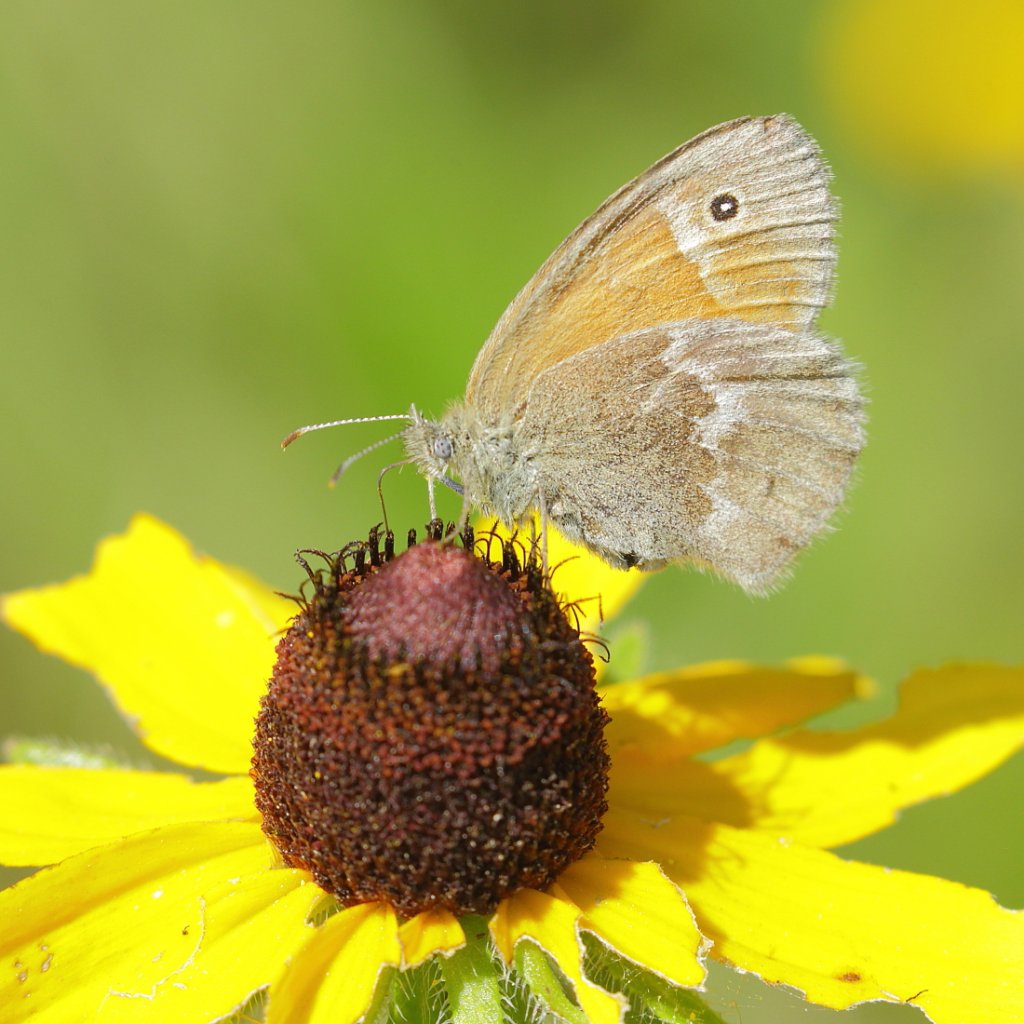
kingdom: Animalia
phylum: Arthropoda
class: Insecta
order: Lepidoptera
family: Nymphalidae
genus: Coenonympha
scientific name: Coenonympha tullia
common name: Large Heath
